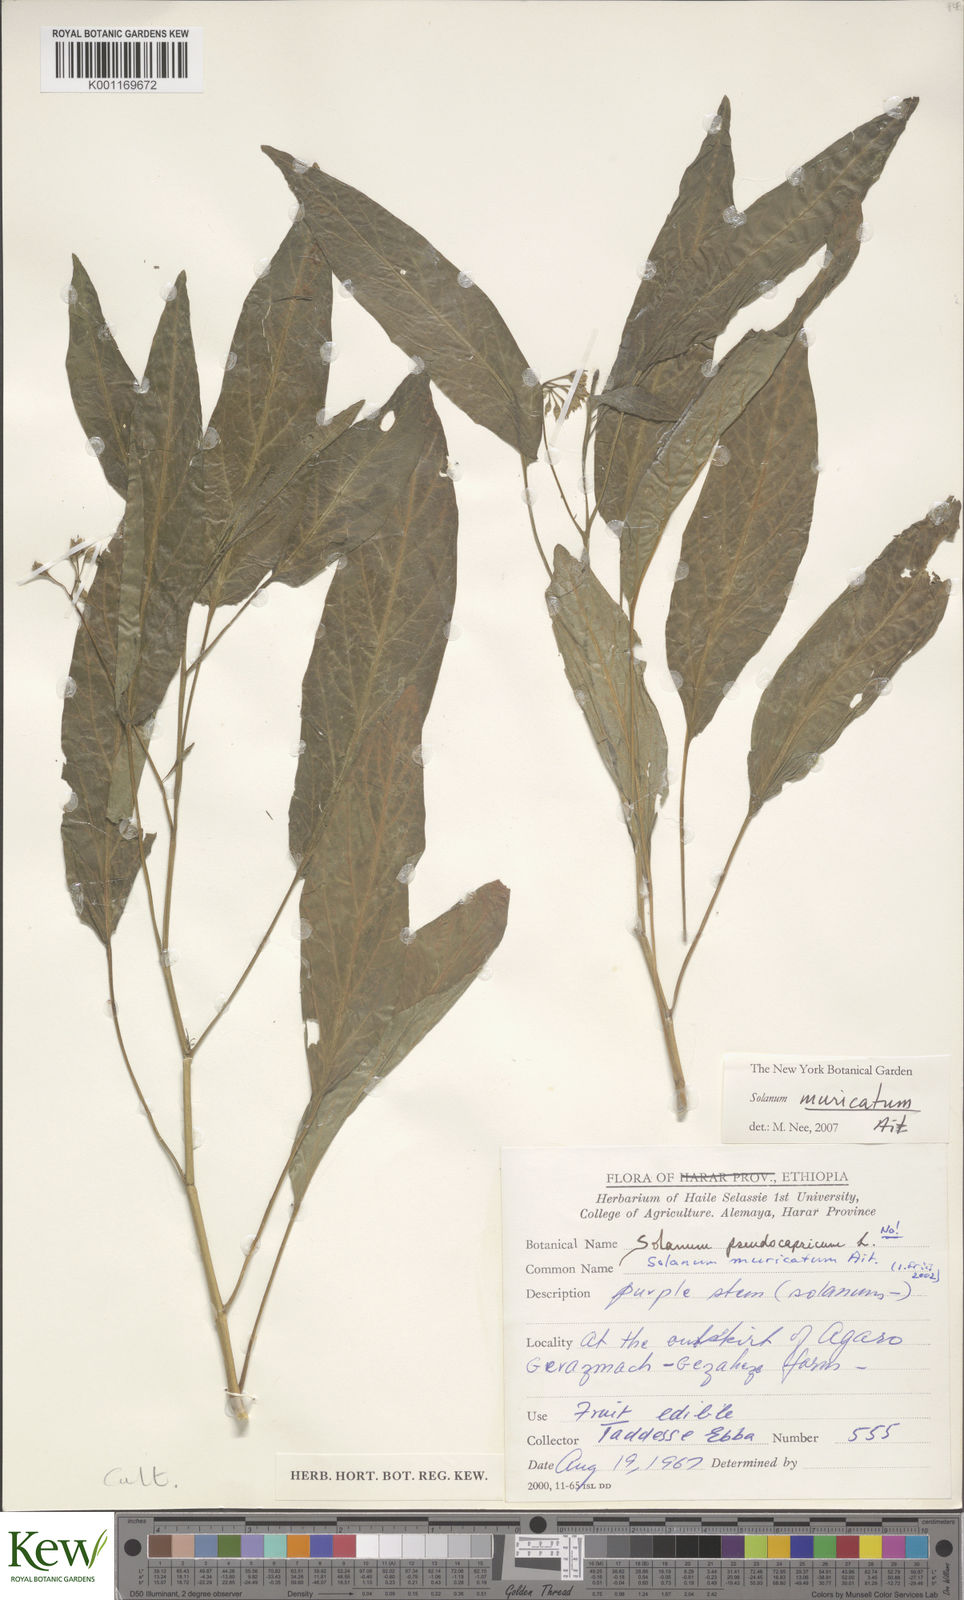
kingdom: Plantae
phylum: Tracheophyta
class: Magnoliopsida
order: Solanales
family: Solanaceae
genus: Solanum
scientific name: Solanum muricatum
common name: Peruvian pepino
